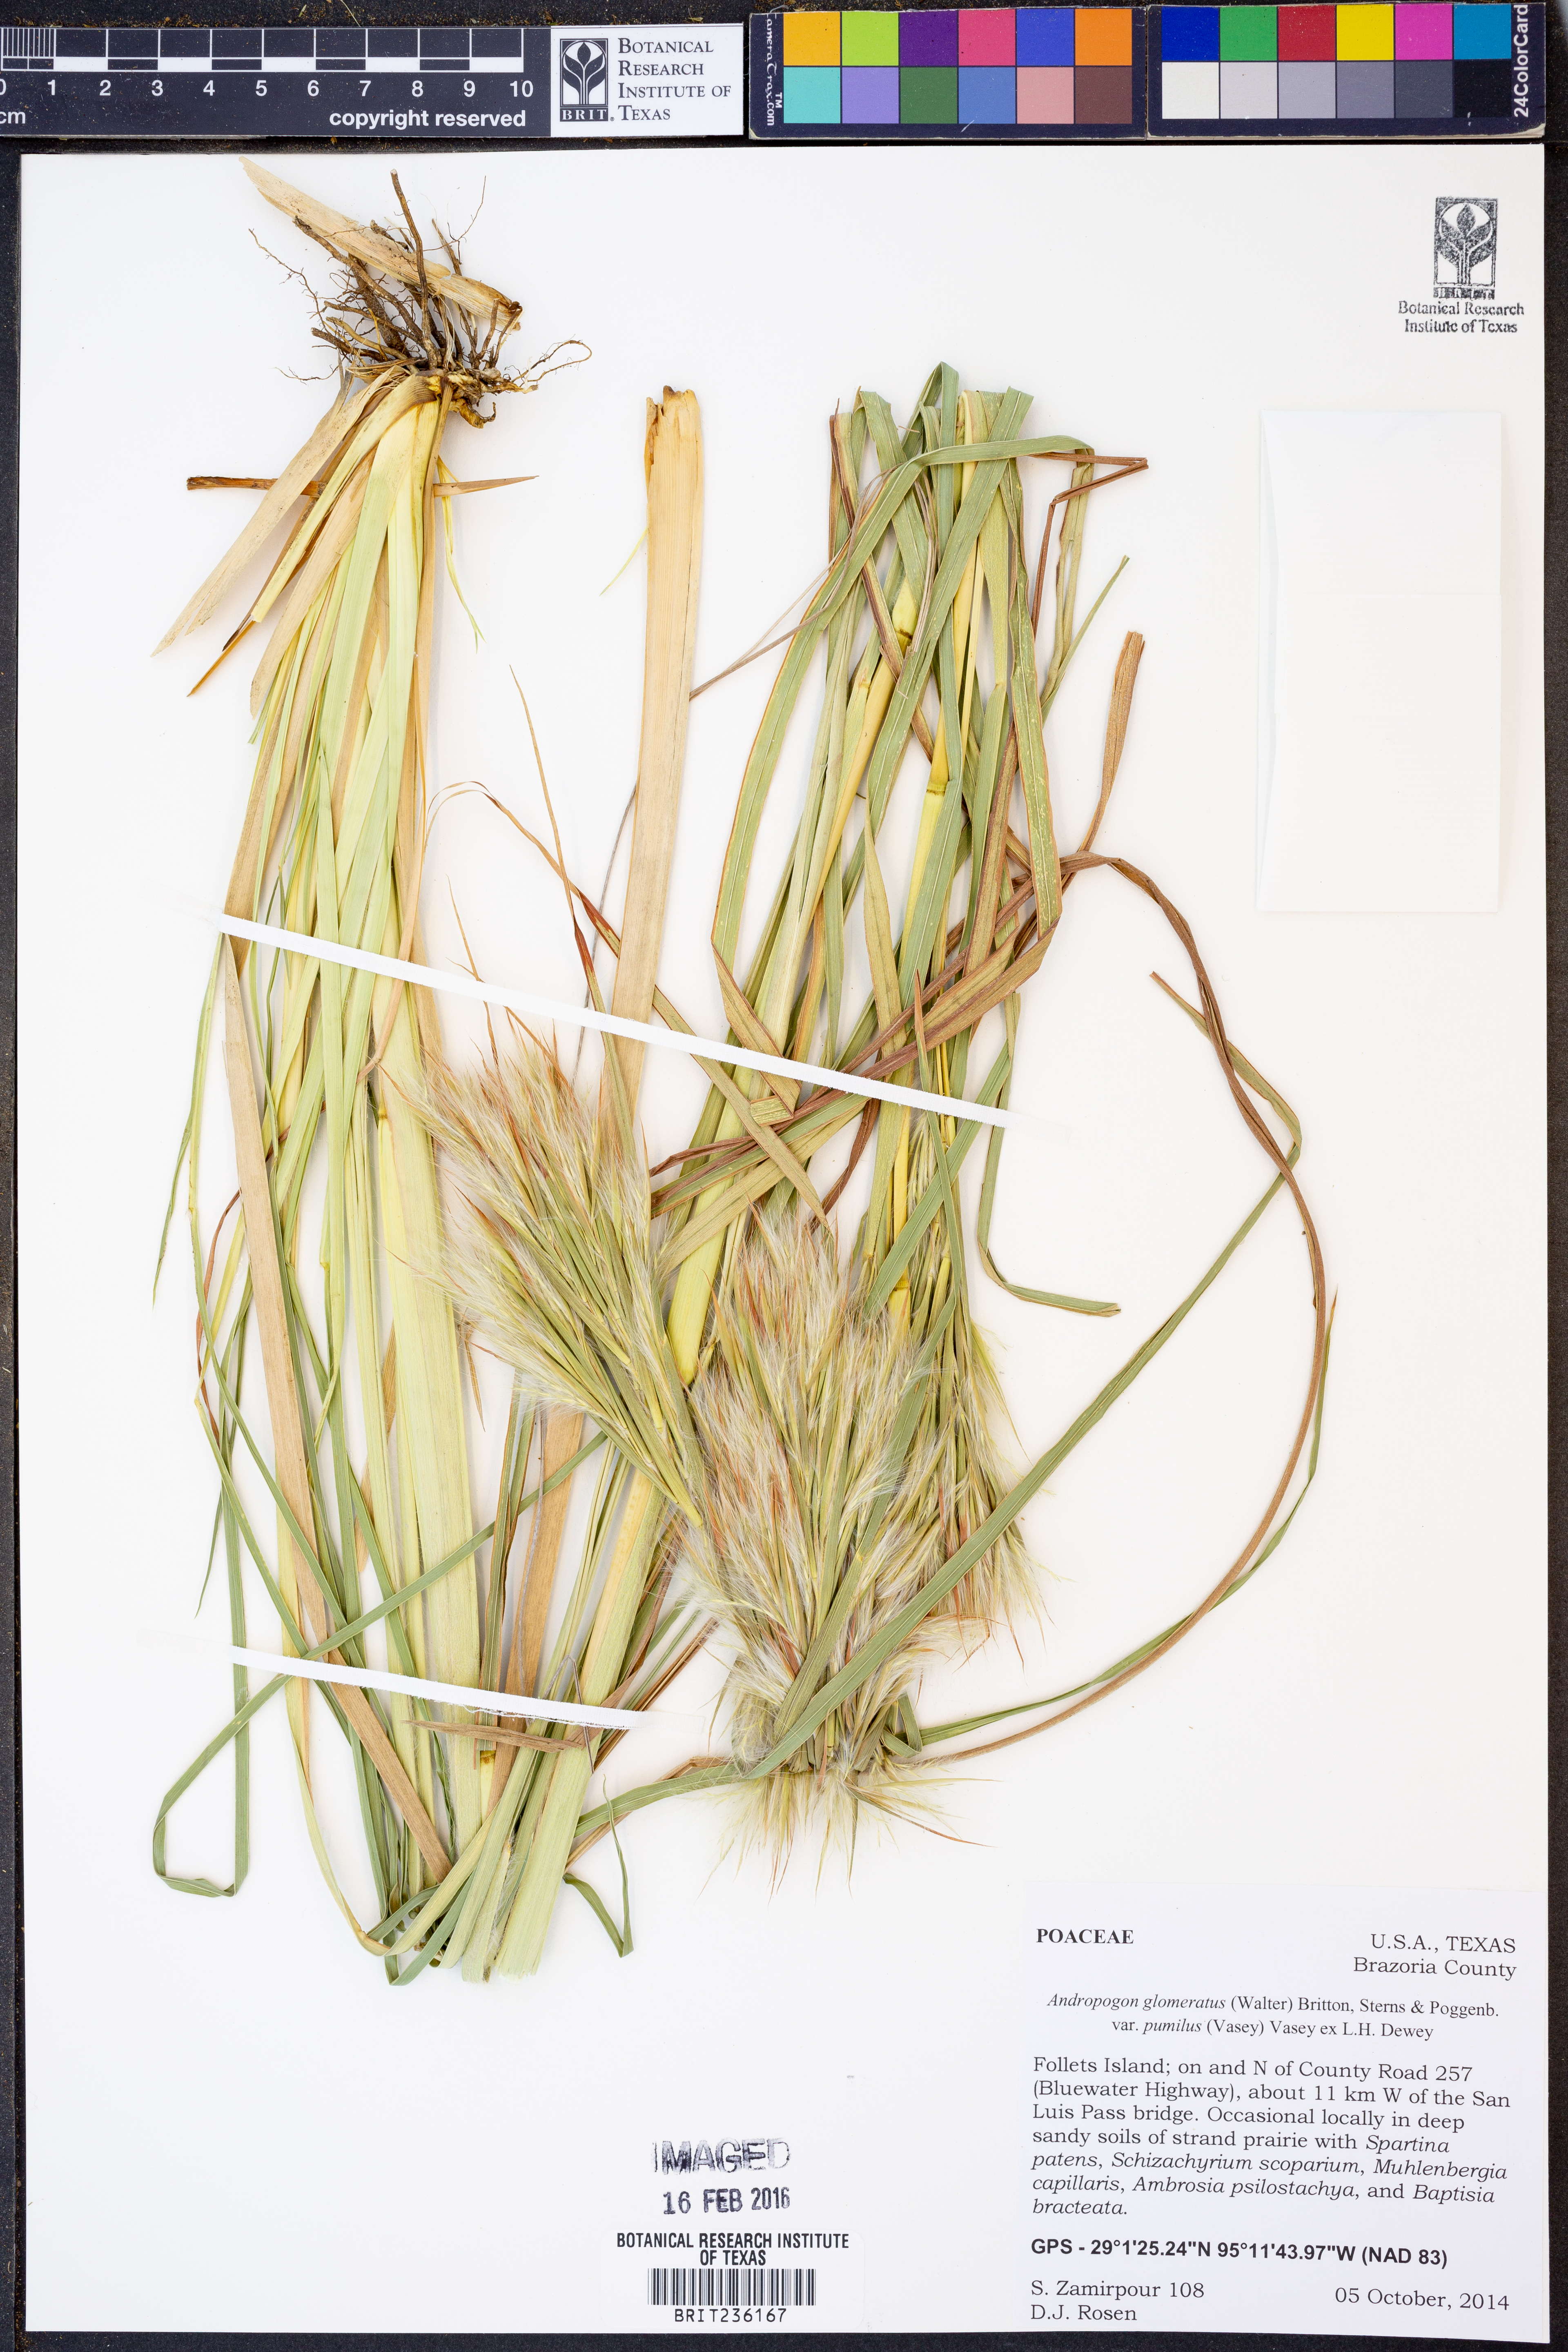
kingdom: Plantae
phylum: Tracheophyta
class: Liliopsida
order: Poales
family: Poaceae
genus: Andropogon
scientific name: Andropogon tenuispatheus
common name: Bushy bluestem
